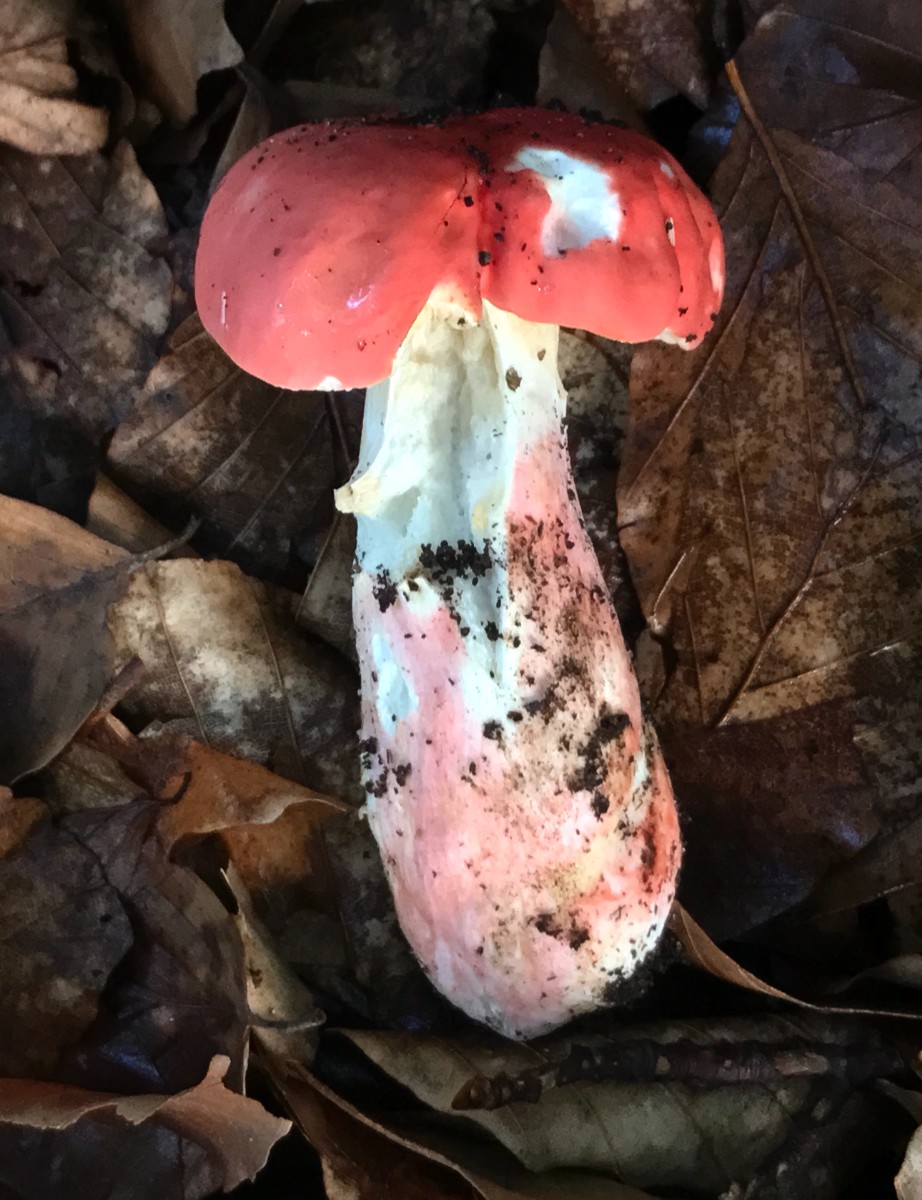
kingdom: Fungi
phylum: Basidiomycota
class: Agaricomycetes
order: Russulales
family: Russulaceae
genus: Russula
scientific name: Russula rosea
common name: fastkødet skørhat
